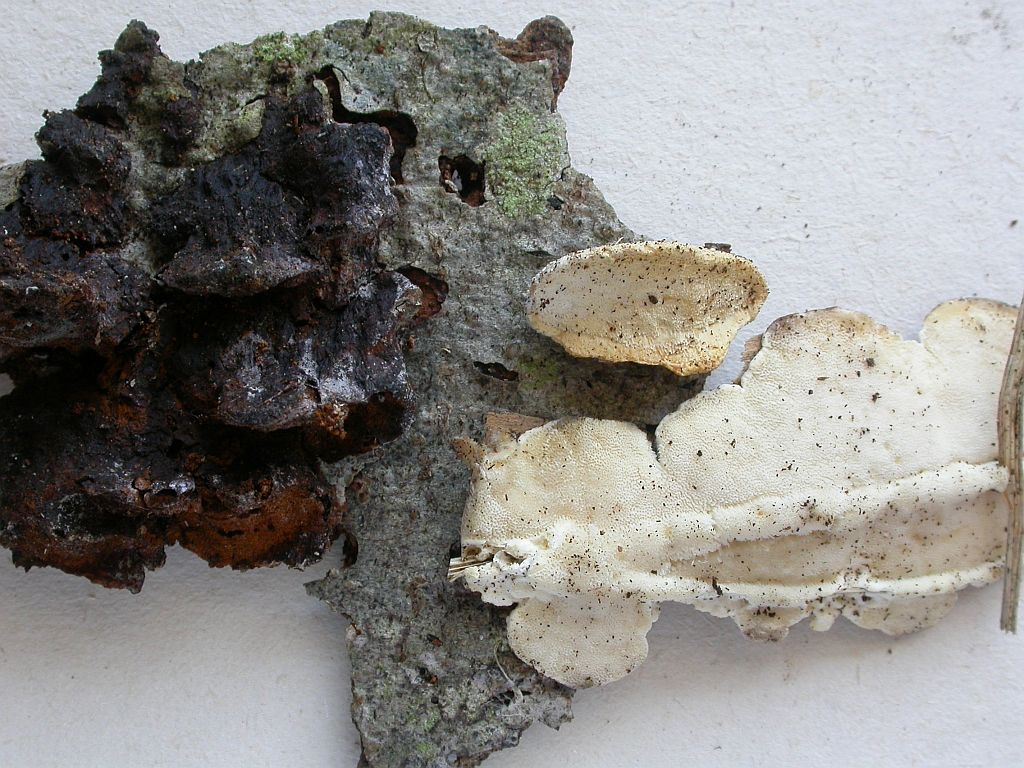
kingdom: Fungi
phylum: Basidiomycota
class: Agaricomycetes
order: Polyporales
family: Steccherinaceae
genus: Antrodiella
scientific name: Antrodiella serpula
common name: gulrandet elastikporesvamp
